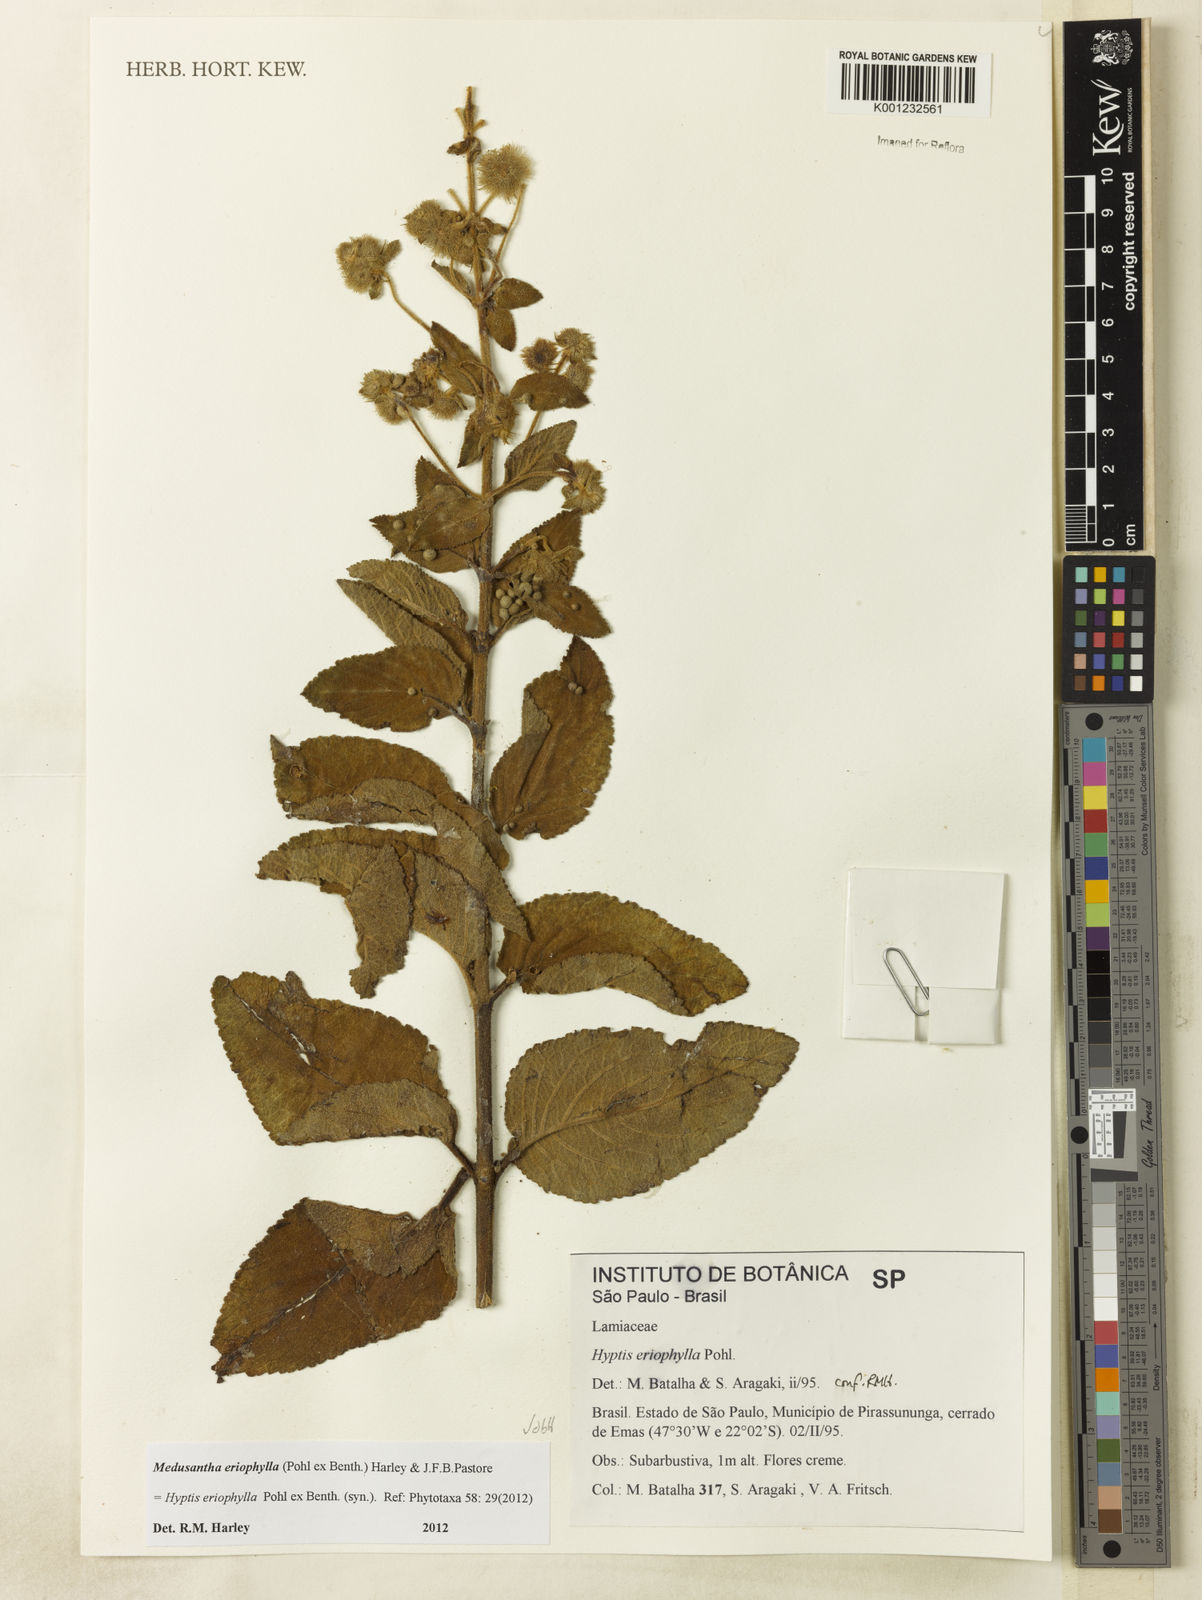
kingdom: Plantae
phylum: Tracheophyta
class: Magnoliopsida
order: Lamiales
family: Lamiaceae
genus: Medusantha
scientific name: Medusantha eriophylla
